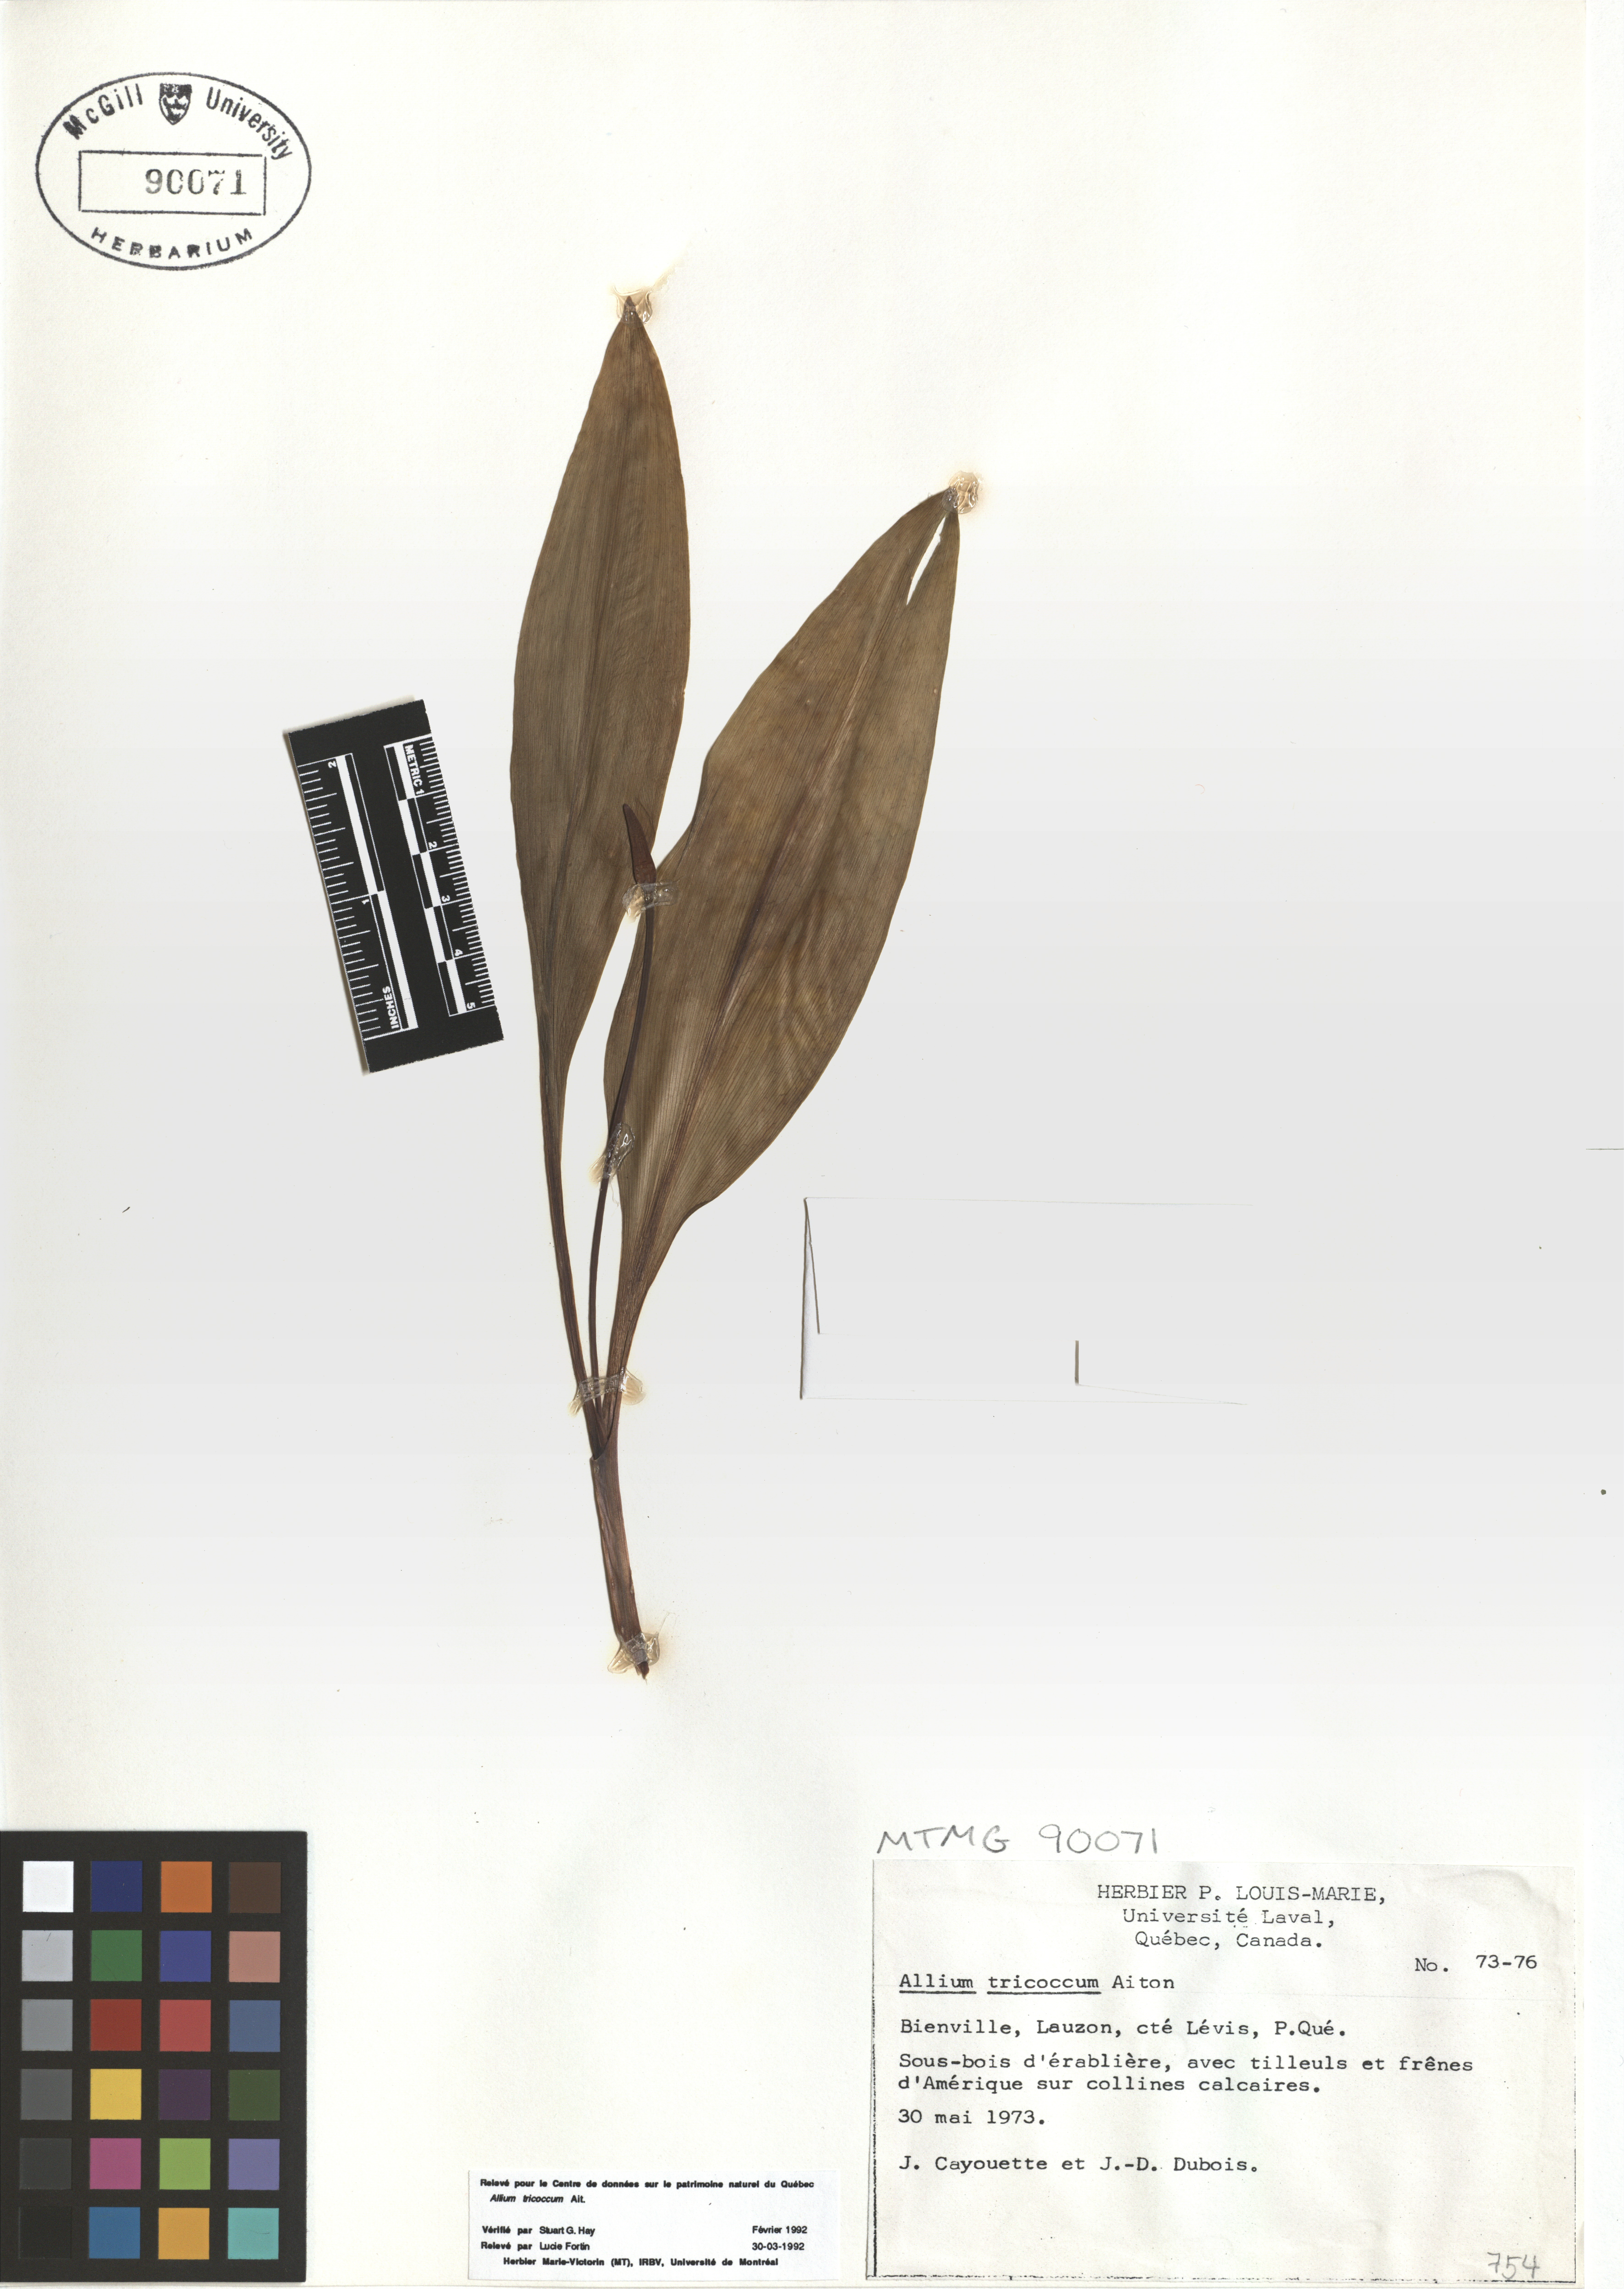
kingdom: Plantae
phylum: Tracheophyta
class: Liliopsida
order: Asparagales
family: Amaryllidaceae
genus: Allium
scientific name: Allium tricoccum
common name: Ramp
